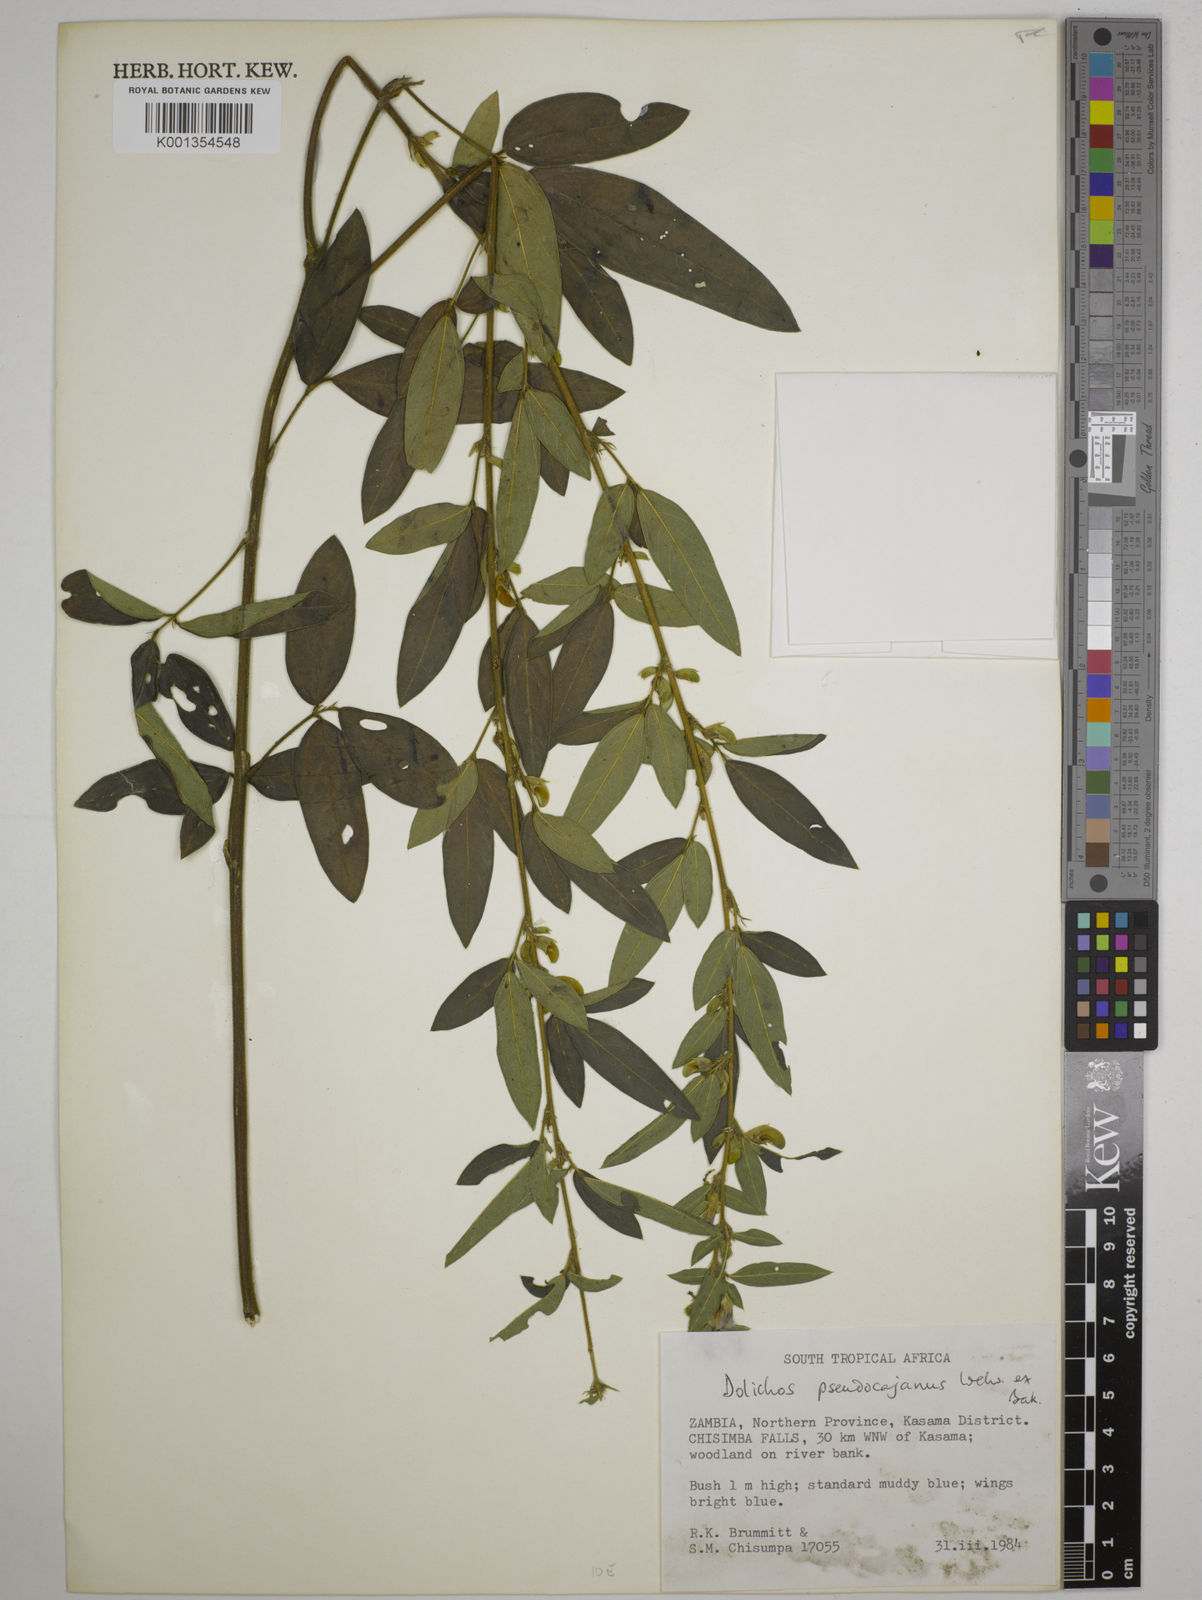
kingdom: Plantae
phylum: Tracheophyta
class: Magnoliopsida
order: Fabales
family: Fabaceae
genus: Dolichos
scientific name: Dolichos pseudocajanus
